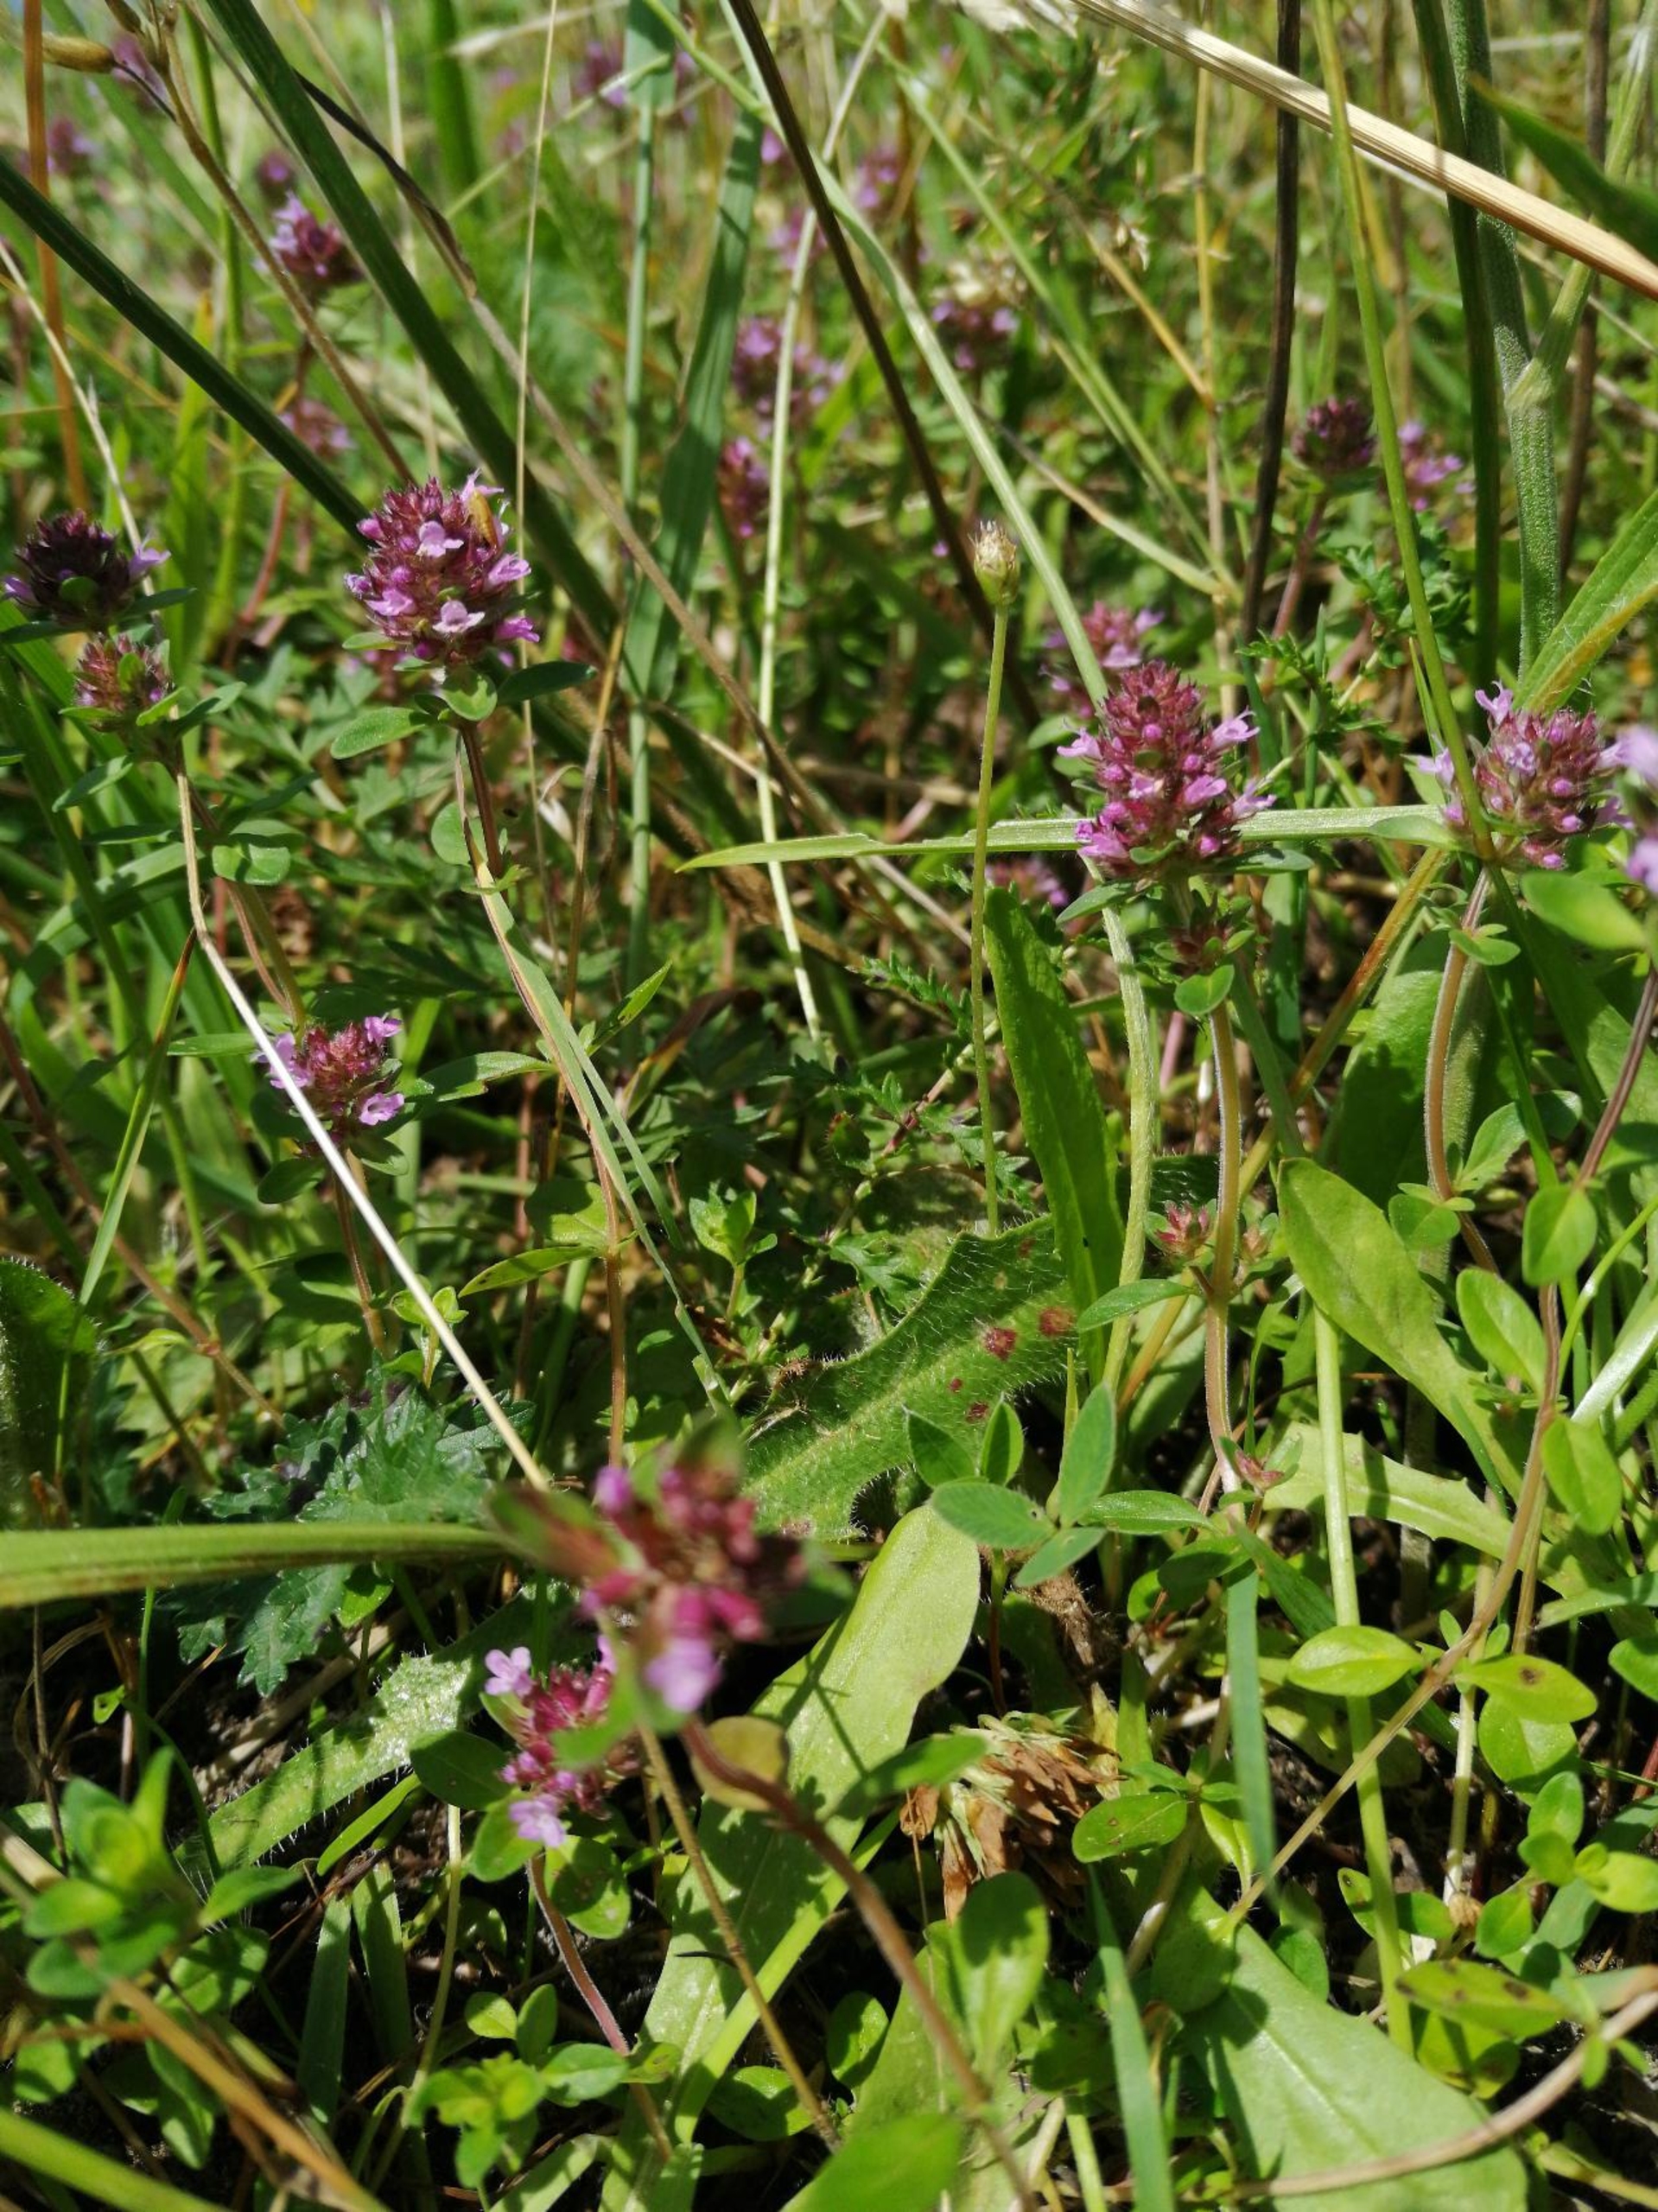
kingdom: Plantae
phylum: Tracheophyta
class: Magnoliopsida
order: Lamiales
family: Lamiaceae
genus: Thymus
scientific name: Thymus pulegioides
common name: Bredbladet timian
